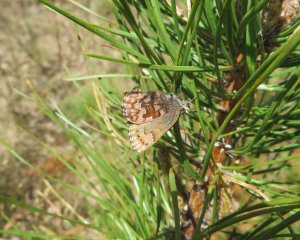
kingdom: Animalia
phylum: Arthropoda
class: Insecta
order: Lepidoptera
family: Lycaenidae
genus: Incisalia
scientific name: Incisalia niphon
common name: Eastern Pine Elfin
